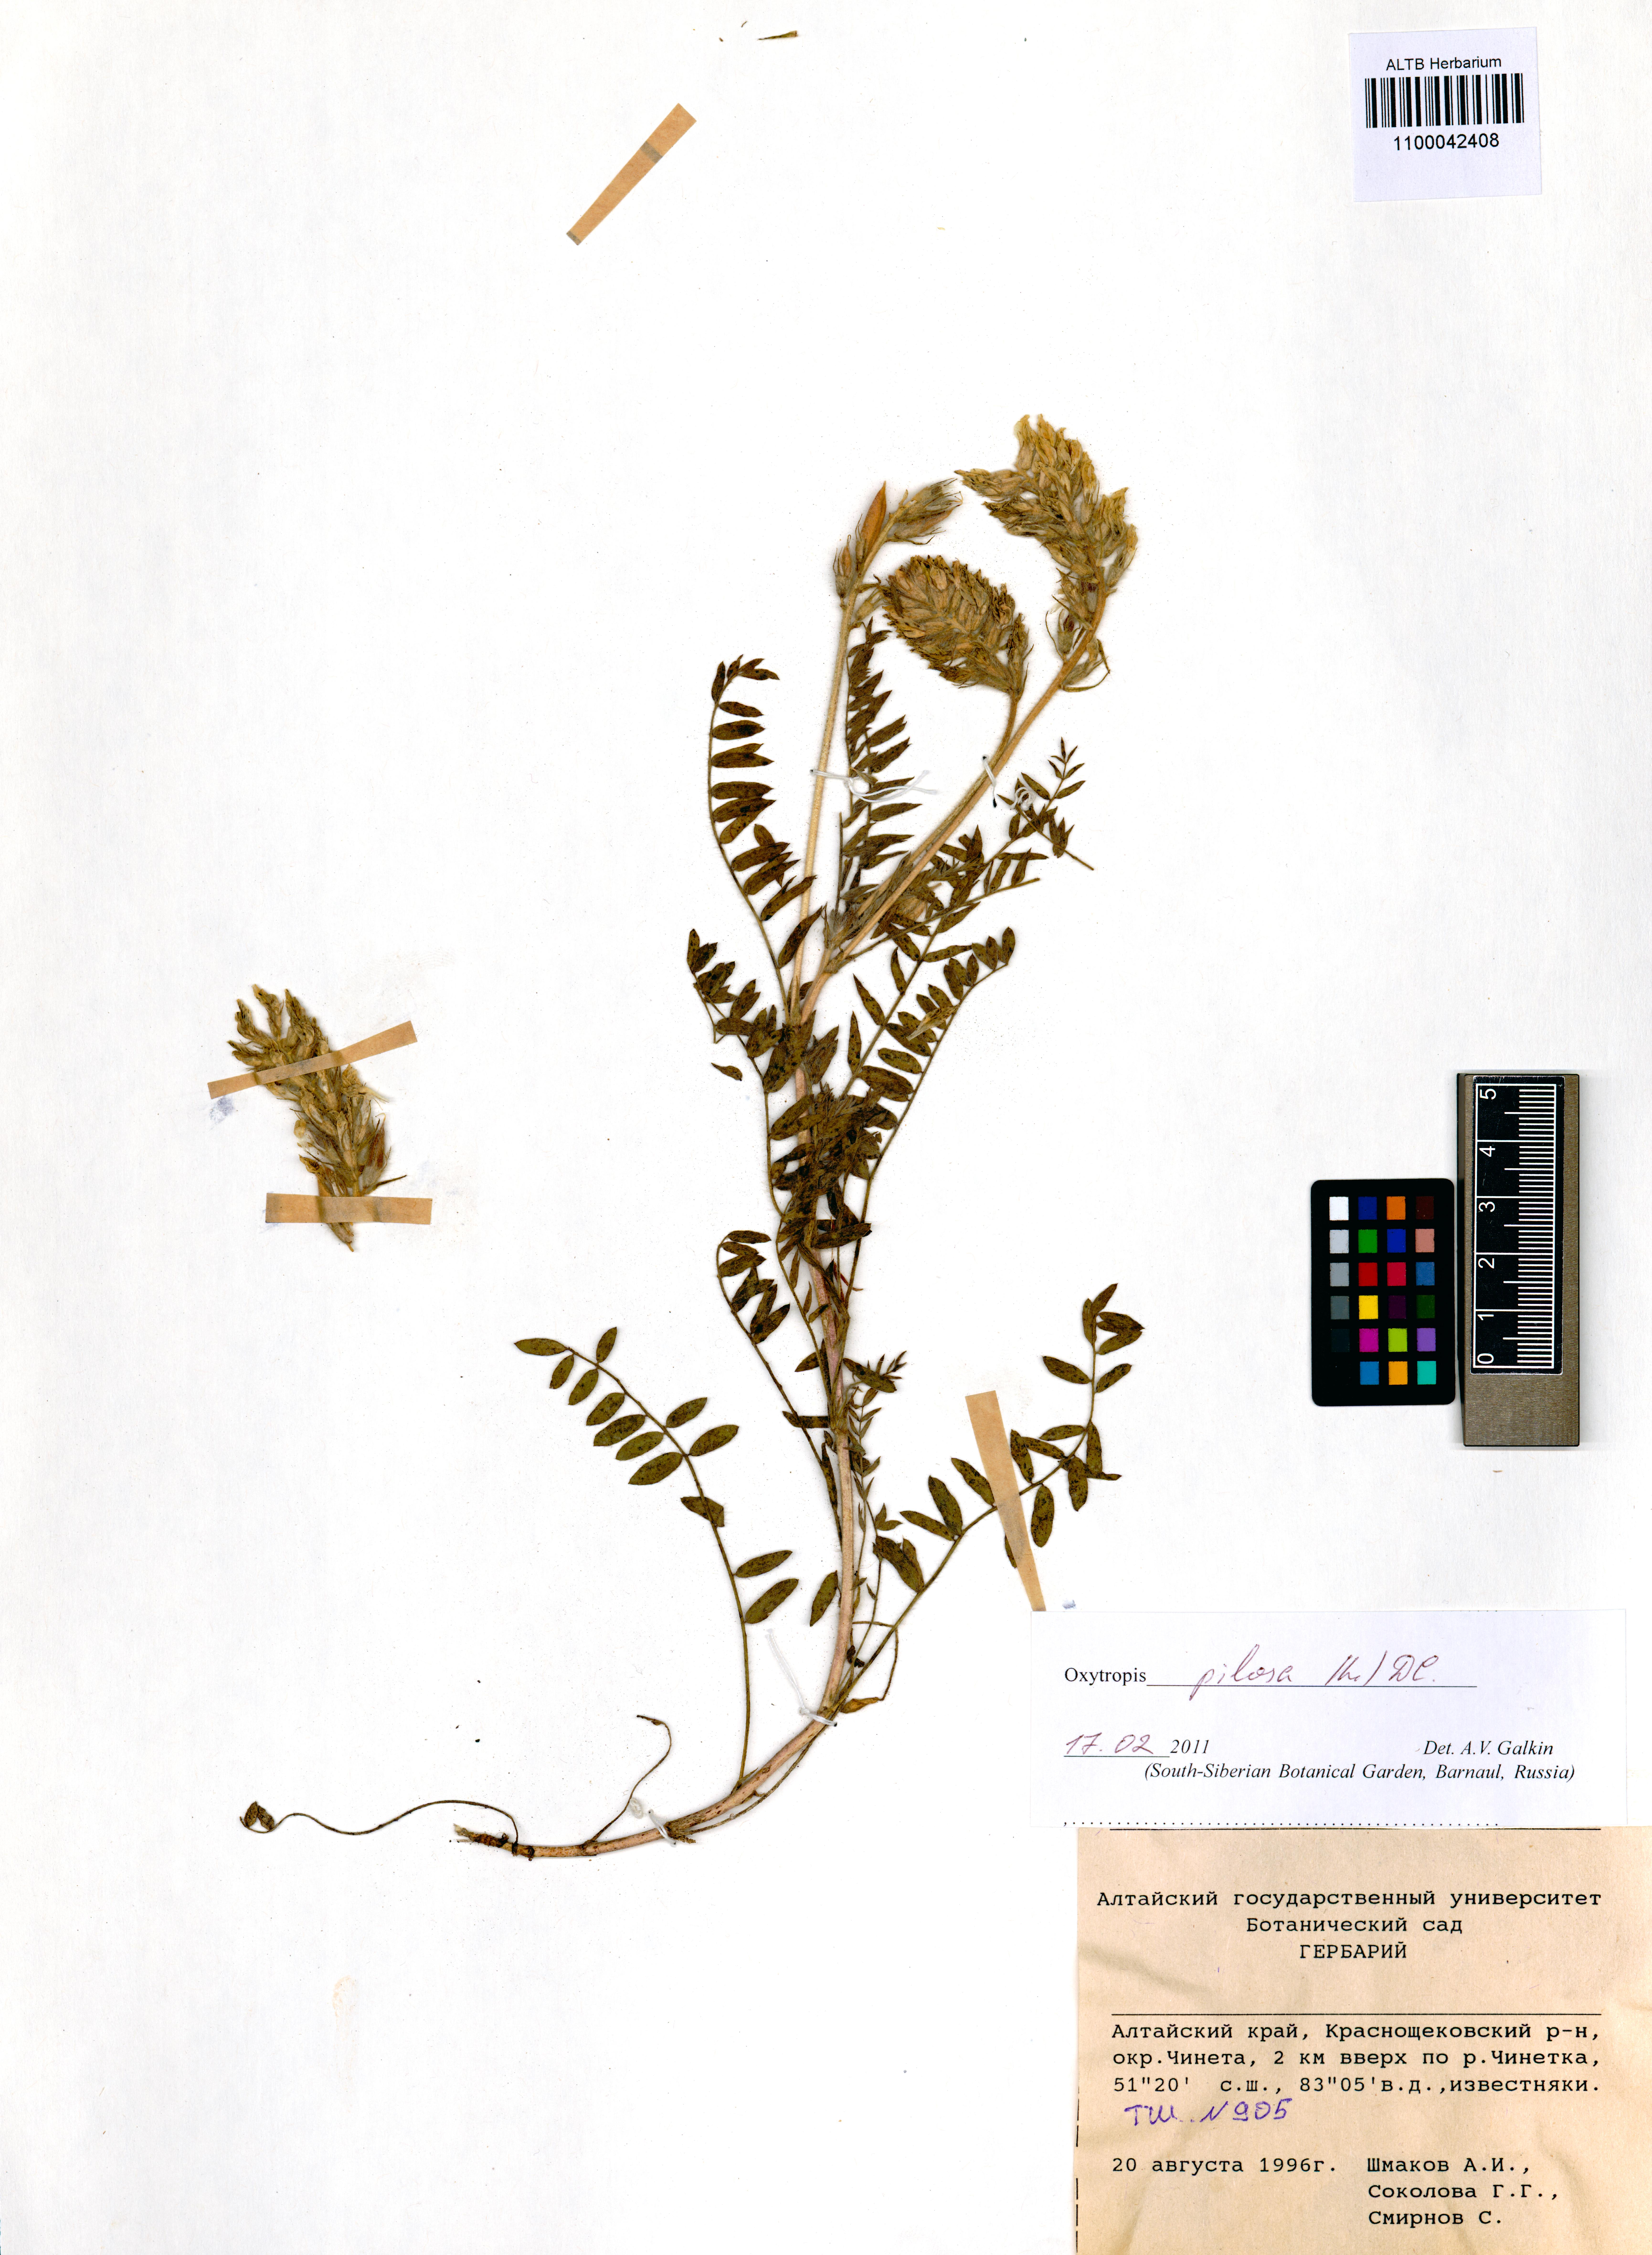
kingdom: Plantae
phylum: Tracheophyta
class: Magnoliopsida
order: Fabales
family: Fabaceae
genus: Oxytropis
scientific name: Oxytropis pilosa
